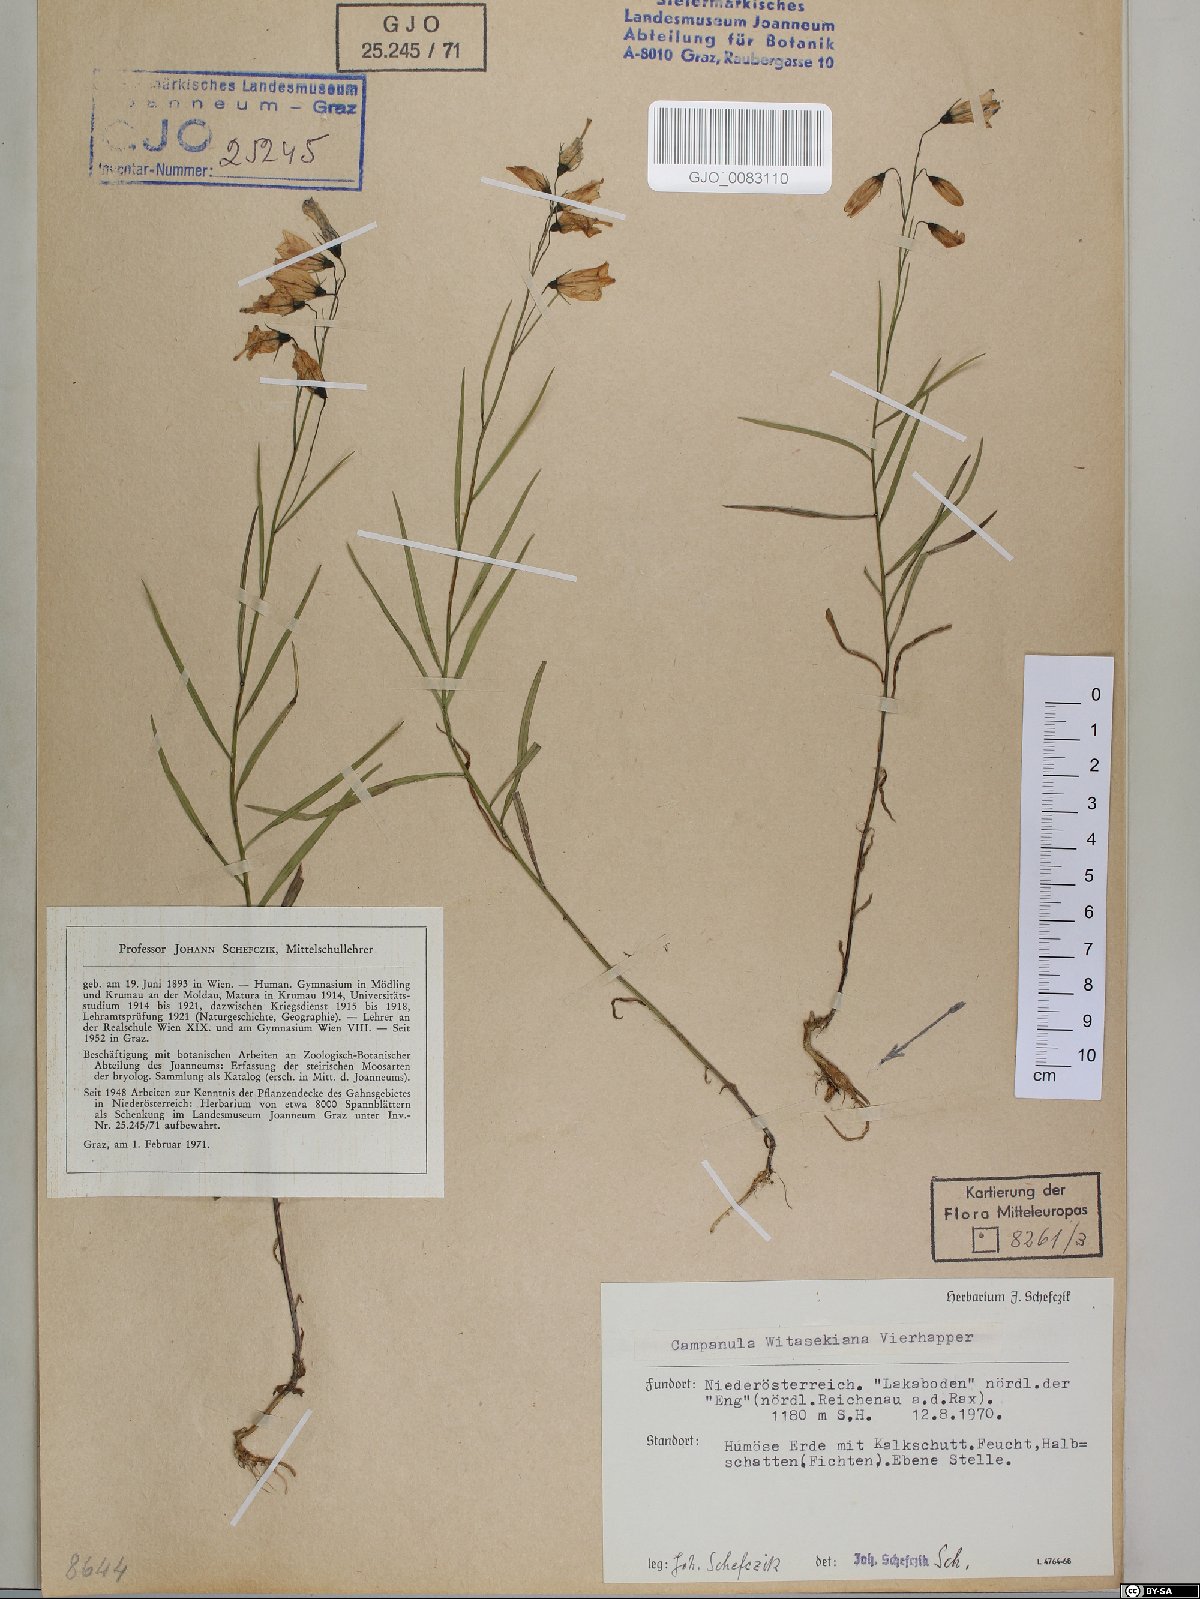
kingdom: Plantae
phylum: Tracheophyta
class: Magnoliopsida
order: Asterales
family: Campanulaceae
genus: Campanula
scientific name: Campanula witasekiana
